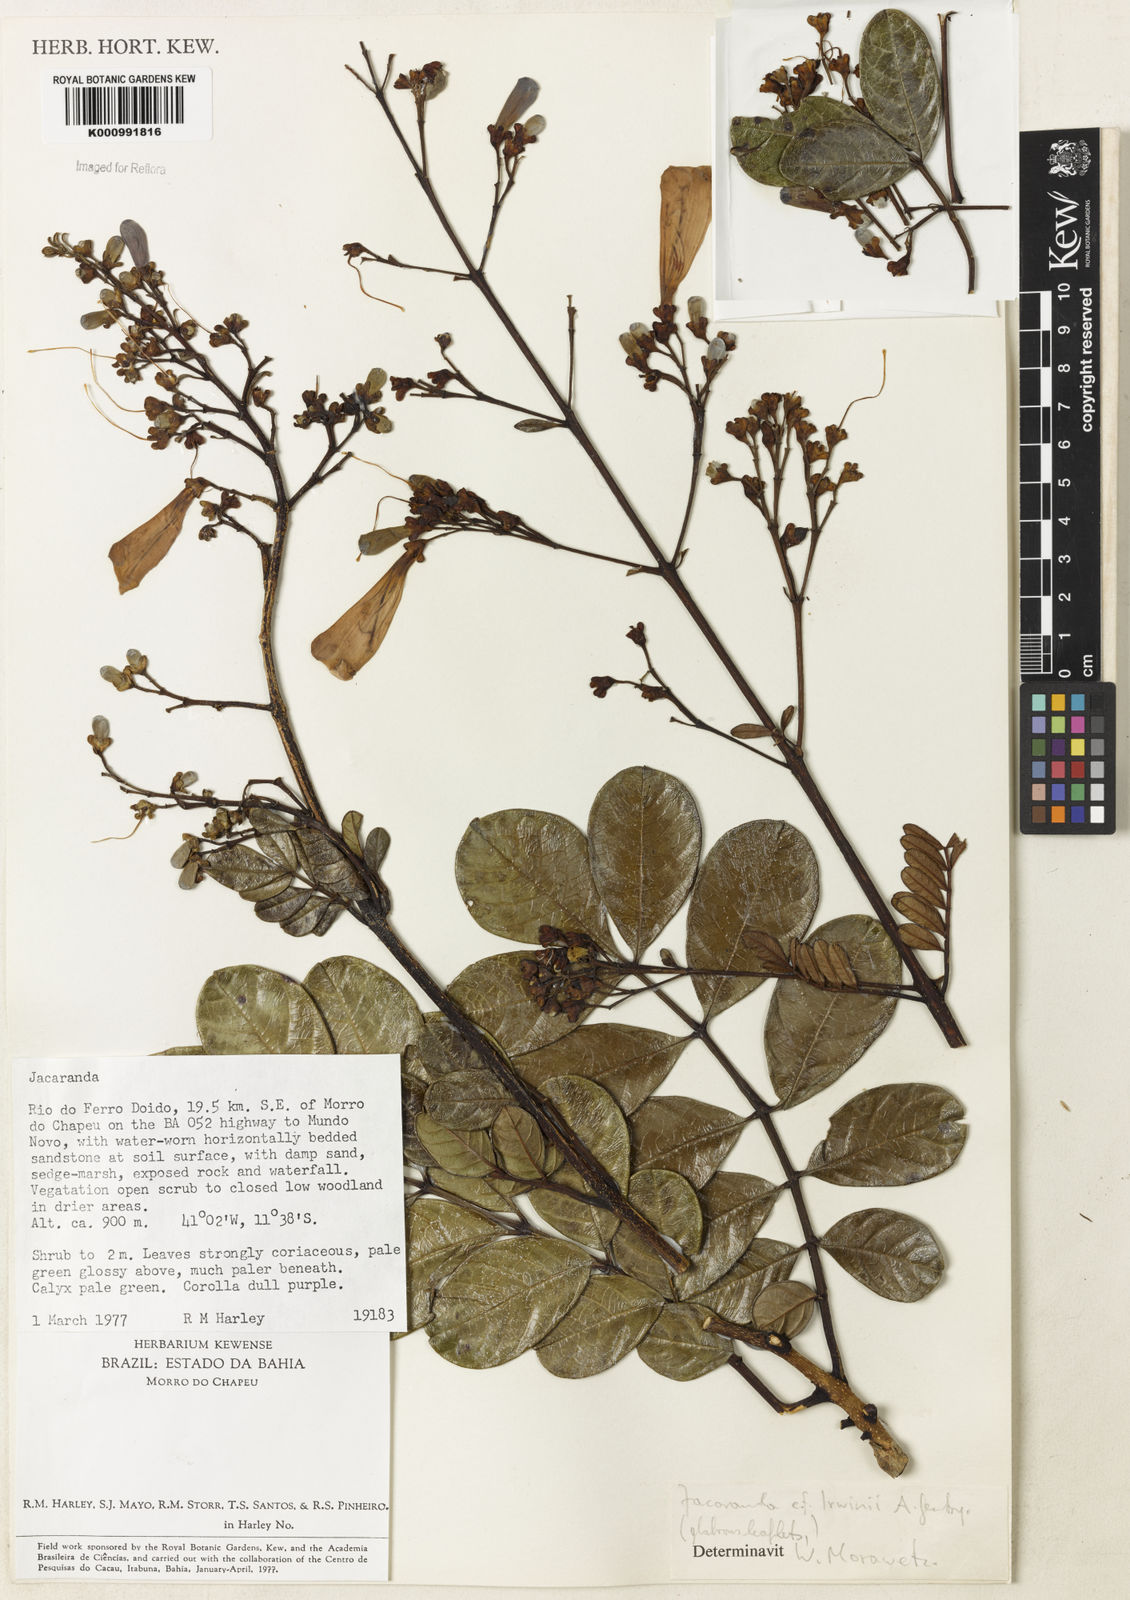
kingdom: Plantae
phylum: Tracheophyta
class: Magnoliopsida
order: Lamiales
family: Bignoniaceae
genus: Jacaranda
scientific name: Jacaranda irwinii
